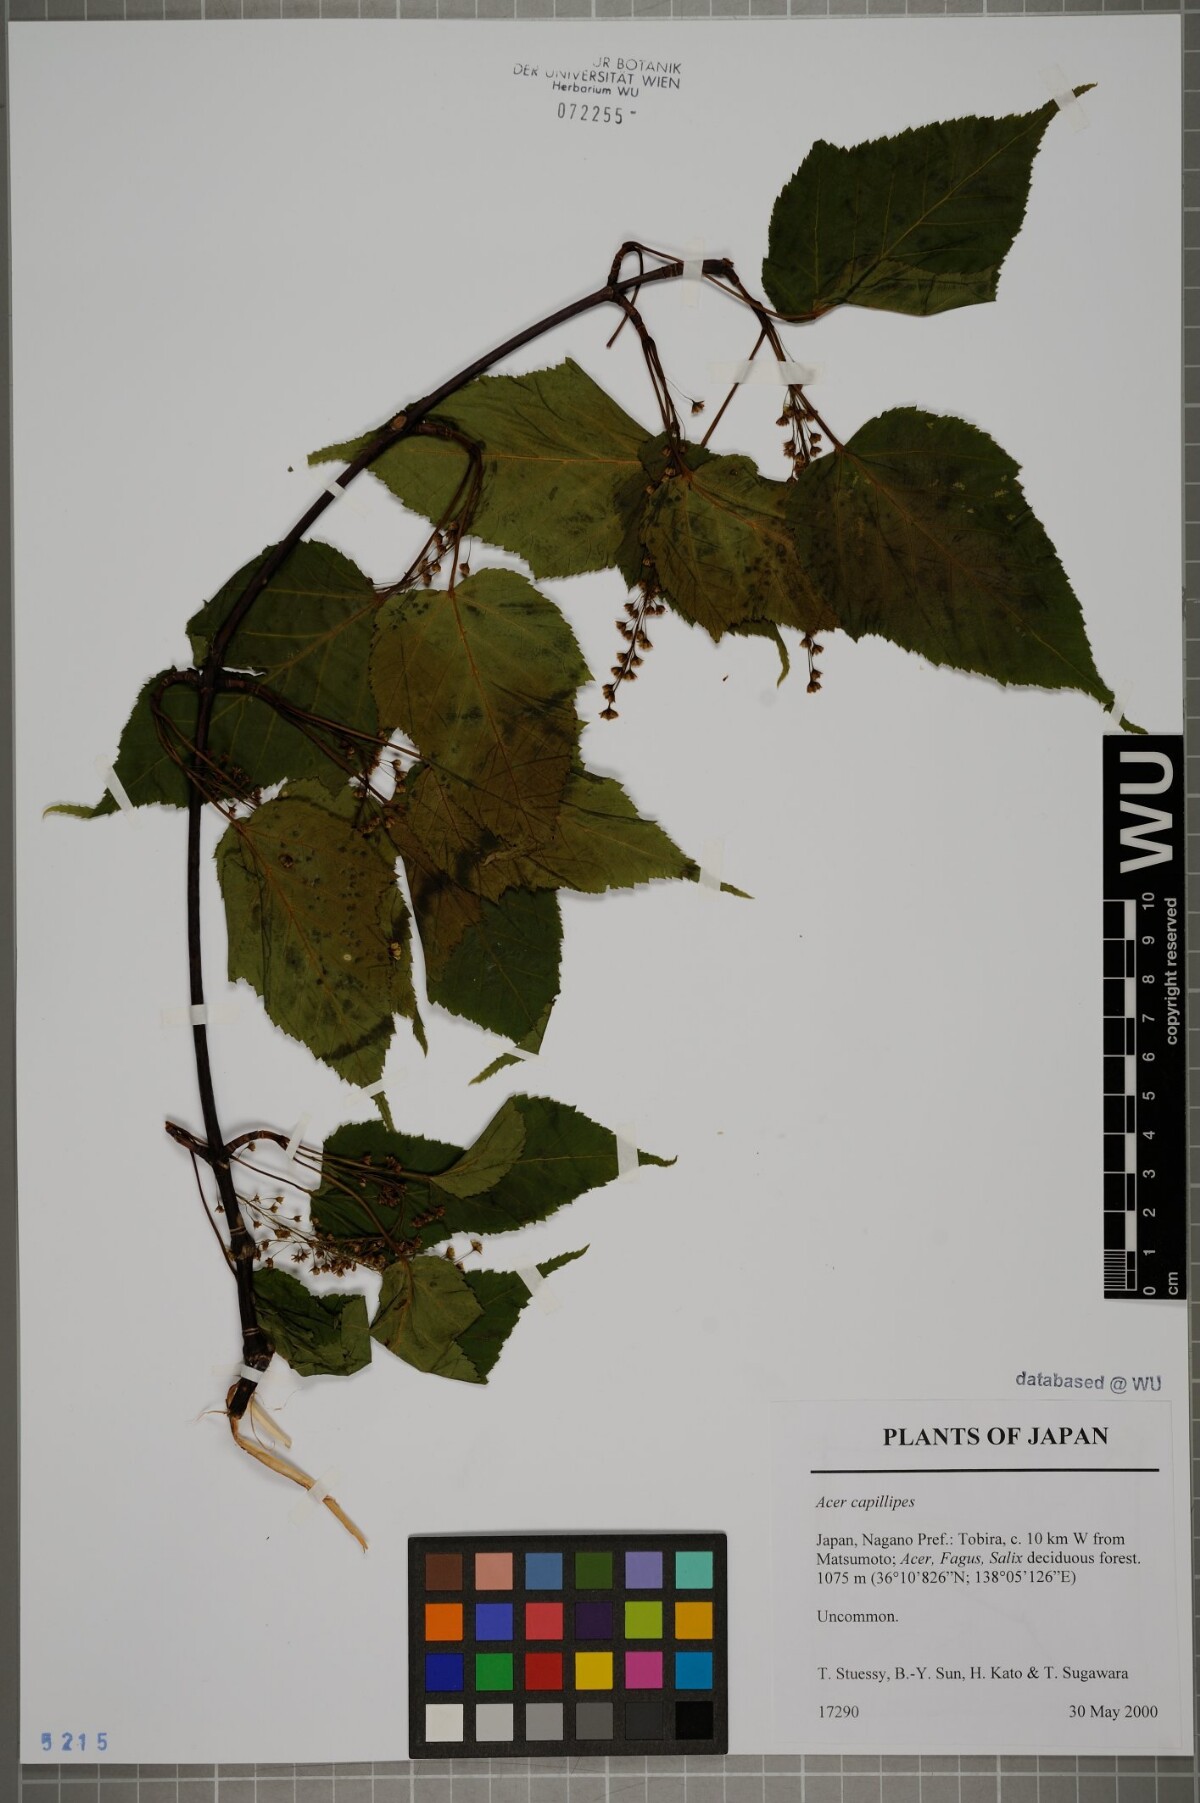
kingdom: Plantae
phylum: Tracheophyta
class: Magnoliopsida
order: Sapindales
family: Sapindaceae
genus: Acer
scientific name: Acer capillipes
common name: Kyushu maple
